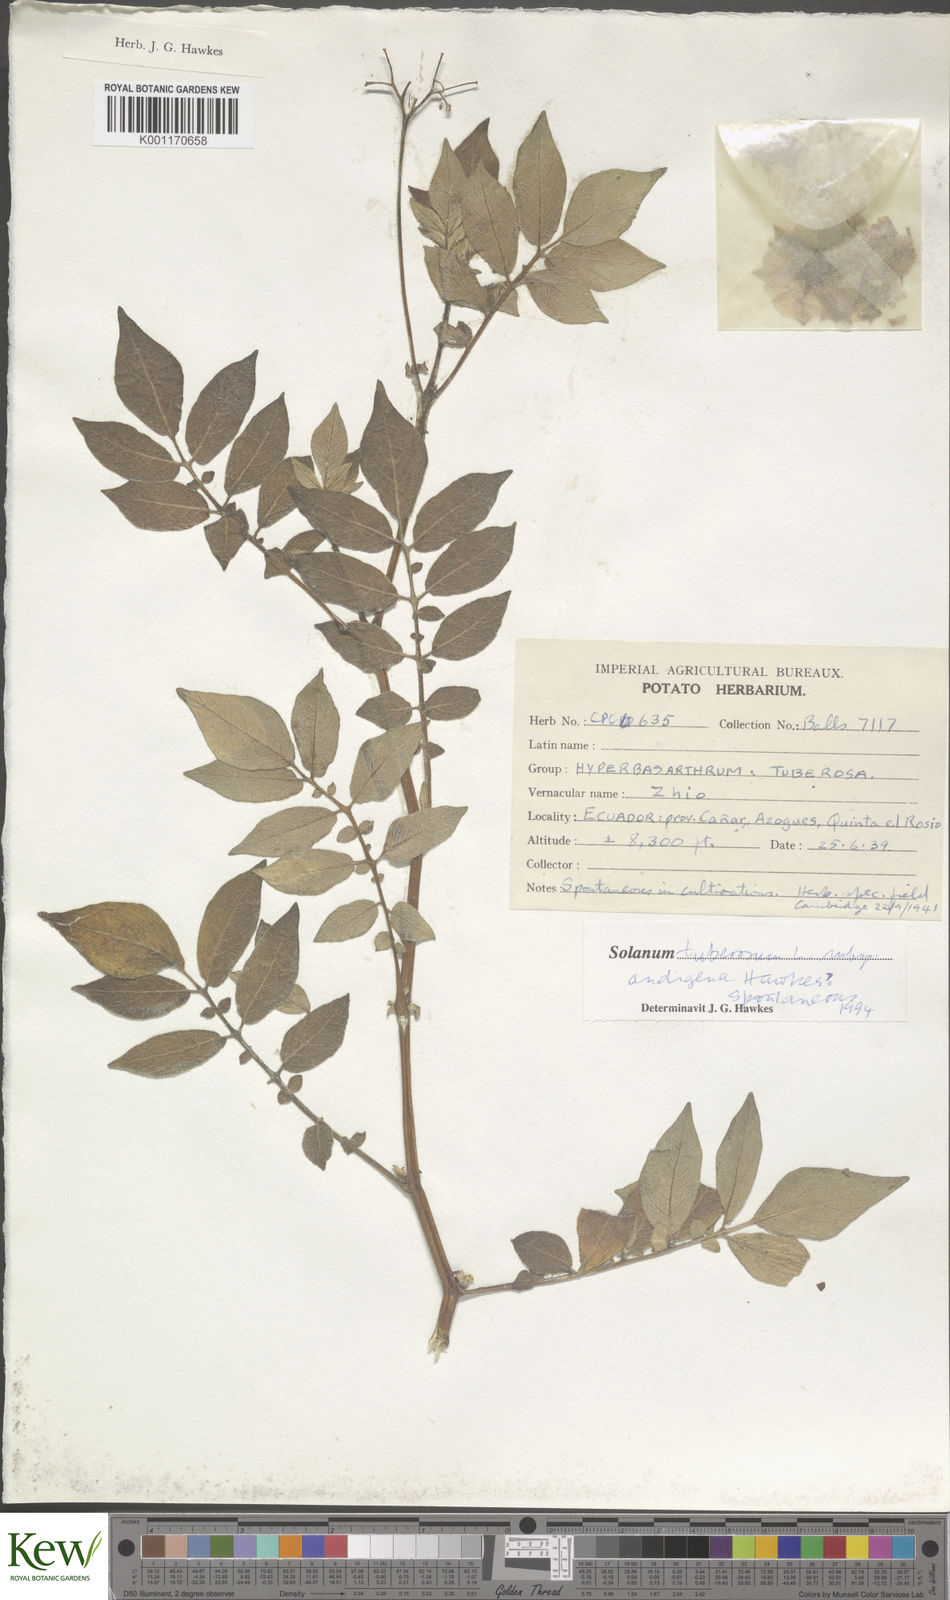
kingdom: Plantae
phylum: Tracheophyta
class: Magnoliopsida
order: Solanales
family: Solanaceae
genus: Solanum
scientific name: Solanum tuberosum
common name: Potato
